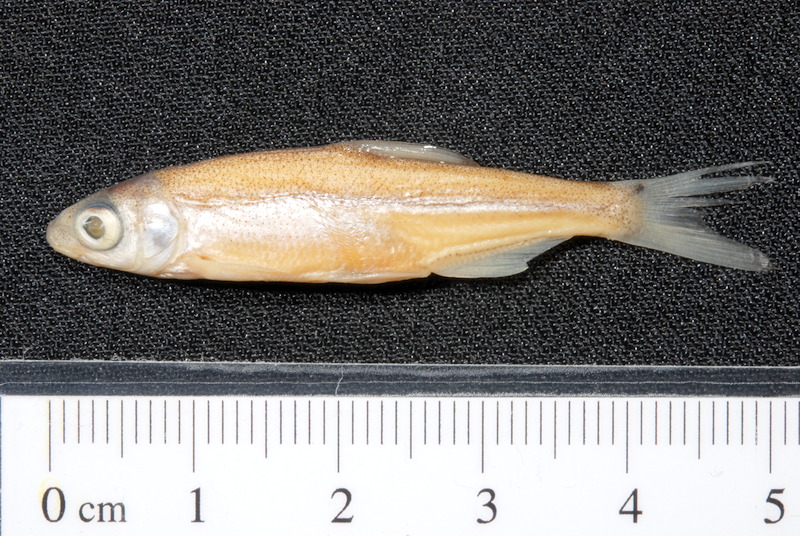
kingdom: Animalia
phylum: Chordata
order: Cypriniformes
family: Cyprinidae
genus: Vimba
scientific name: Vimba vimba
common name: Vimba
